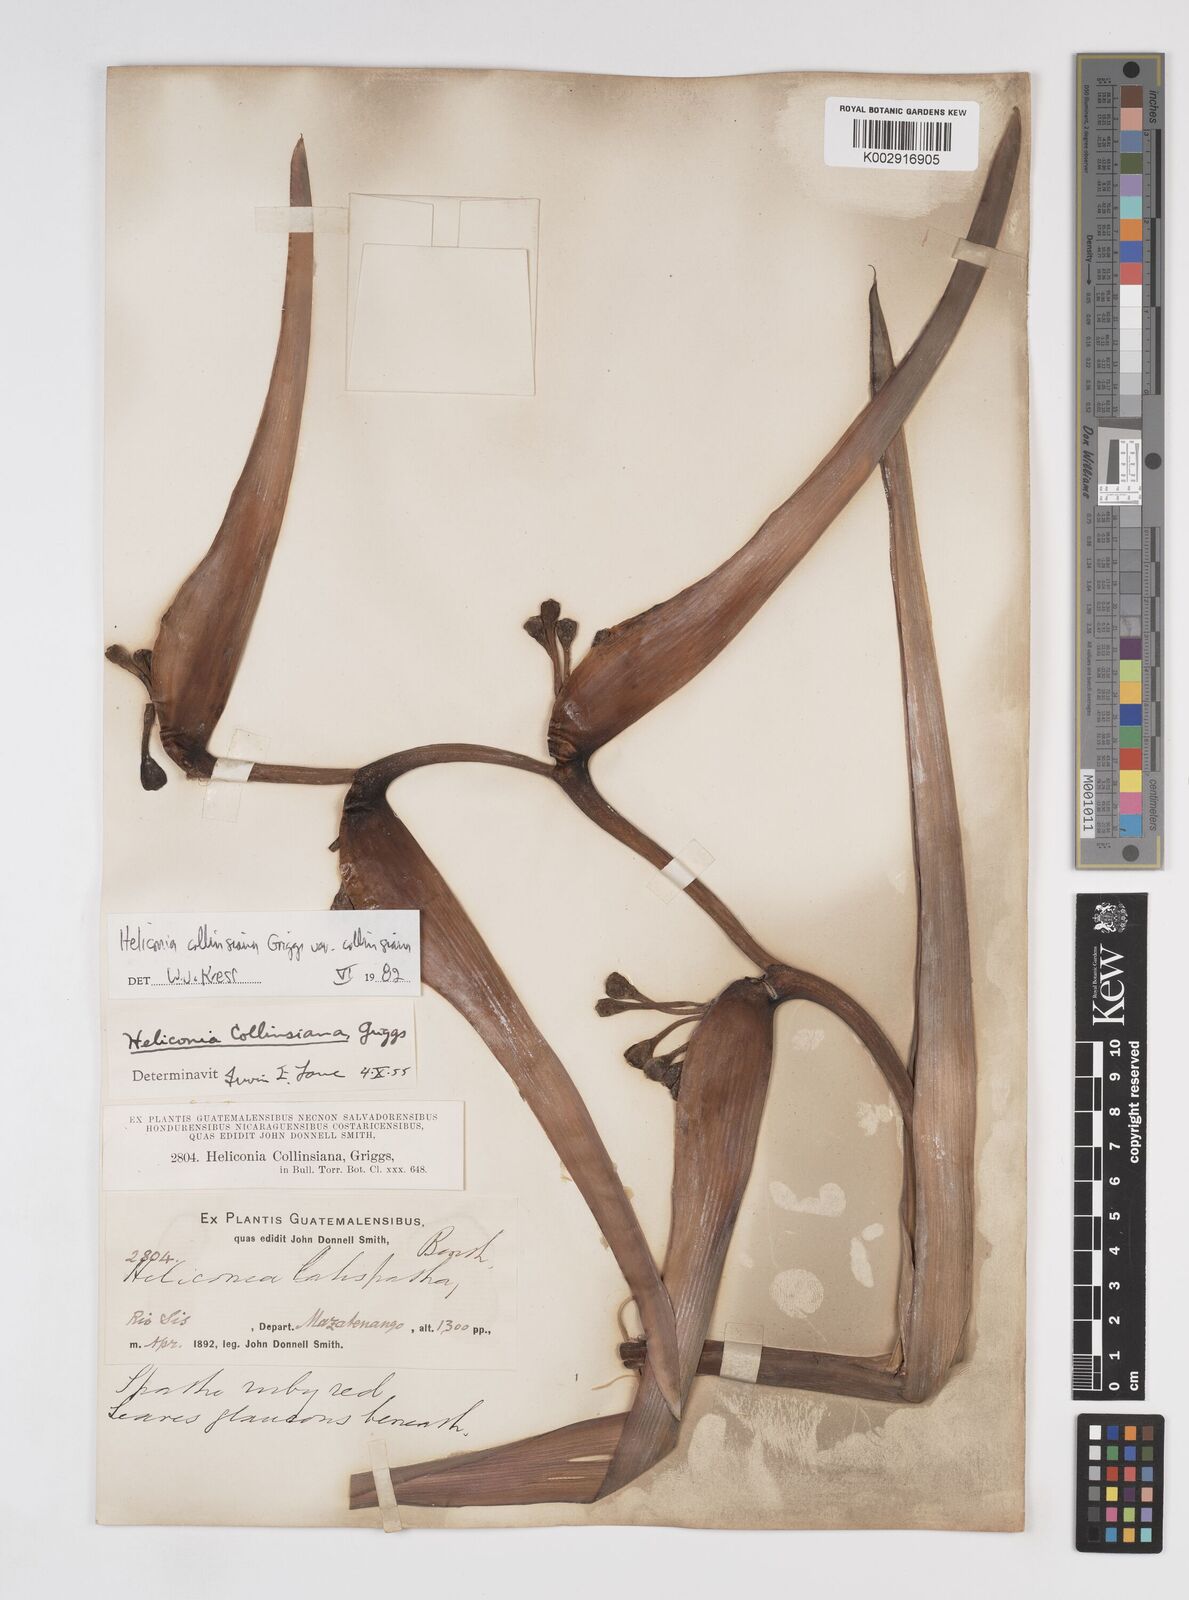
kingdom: Plantae
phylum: Tracheophyta
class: Liliopsida
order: Zingiberales
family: Heliconiaceae
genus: Heliconia
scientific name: Heliconia collinsiana
